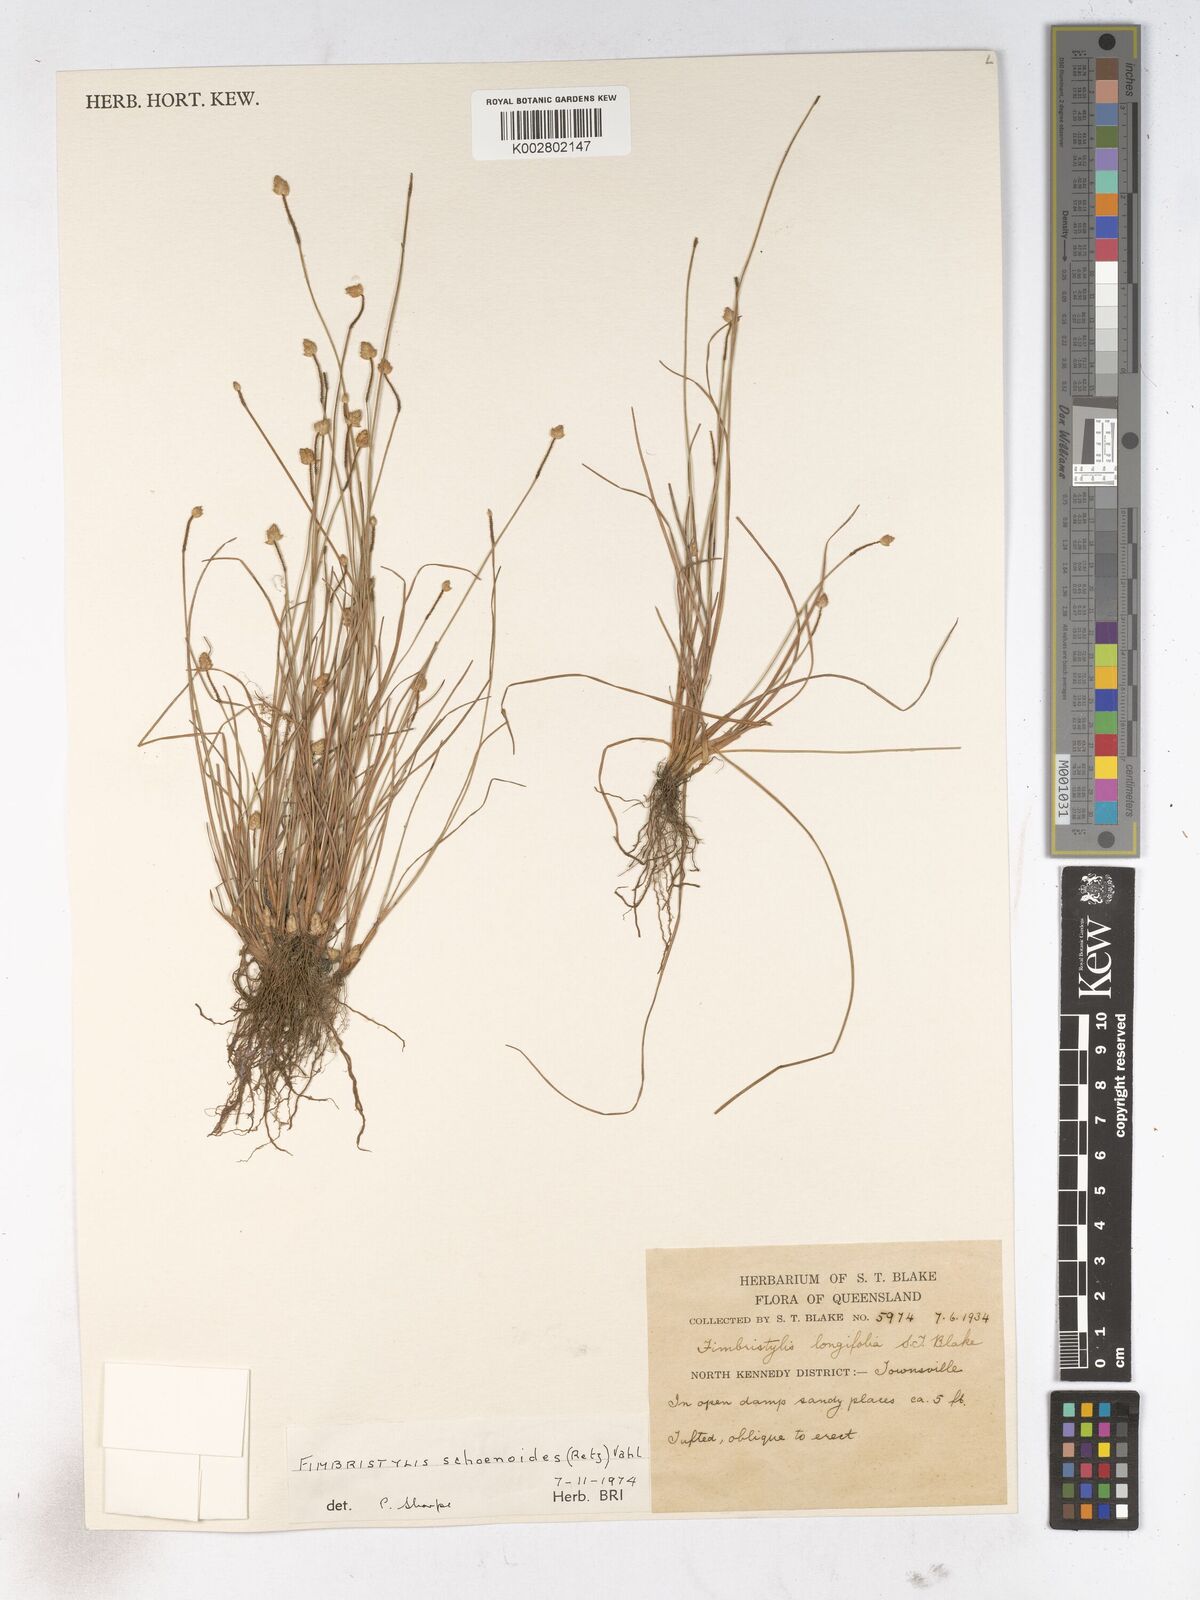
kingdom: Plantae
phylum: Tracheophyta
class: Liliopsida
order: Poales
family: Cyperaceae
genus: Fimbristylis
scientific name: Fimbristylis schoenoides
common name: Ditch fimbry
